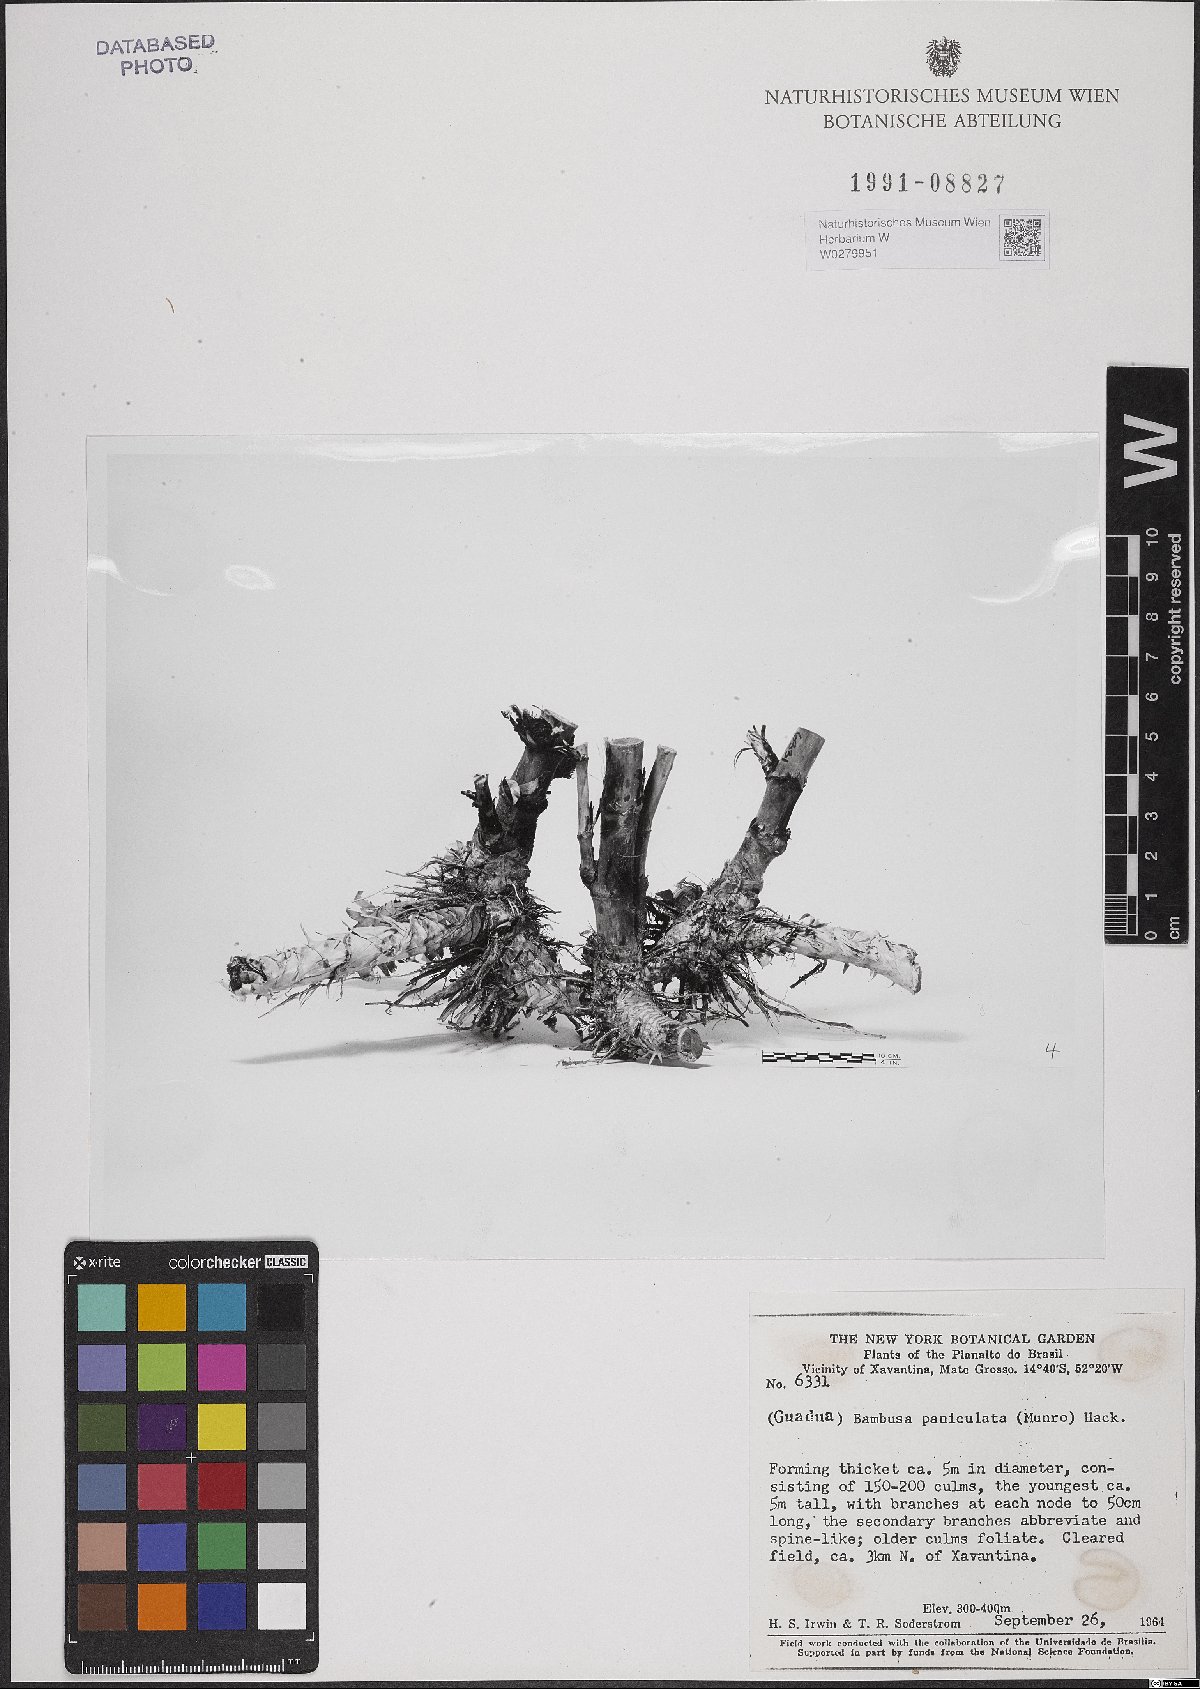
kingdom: Plantae
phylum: Tracheophyta
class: Liliopsida
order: Poales
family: Poaceae
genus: Guadua
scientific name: Guadua paniculata
